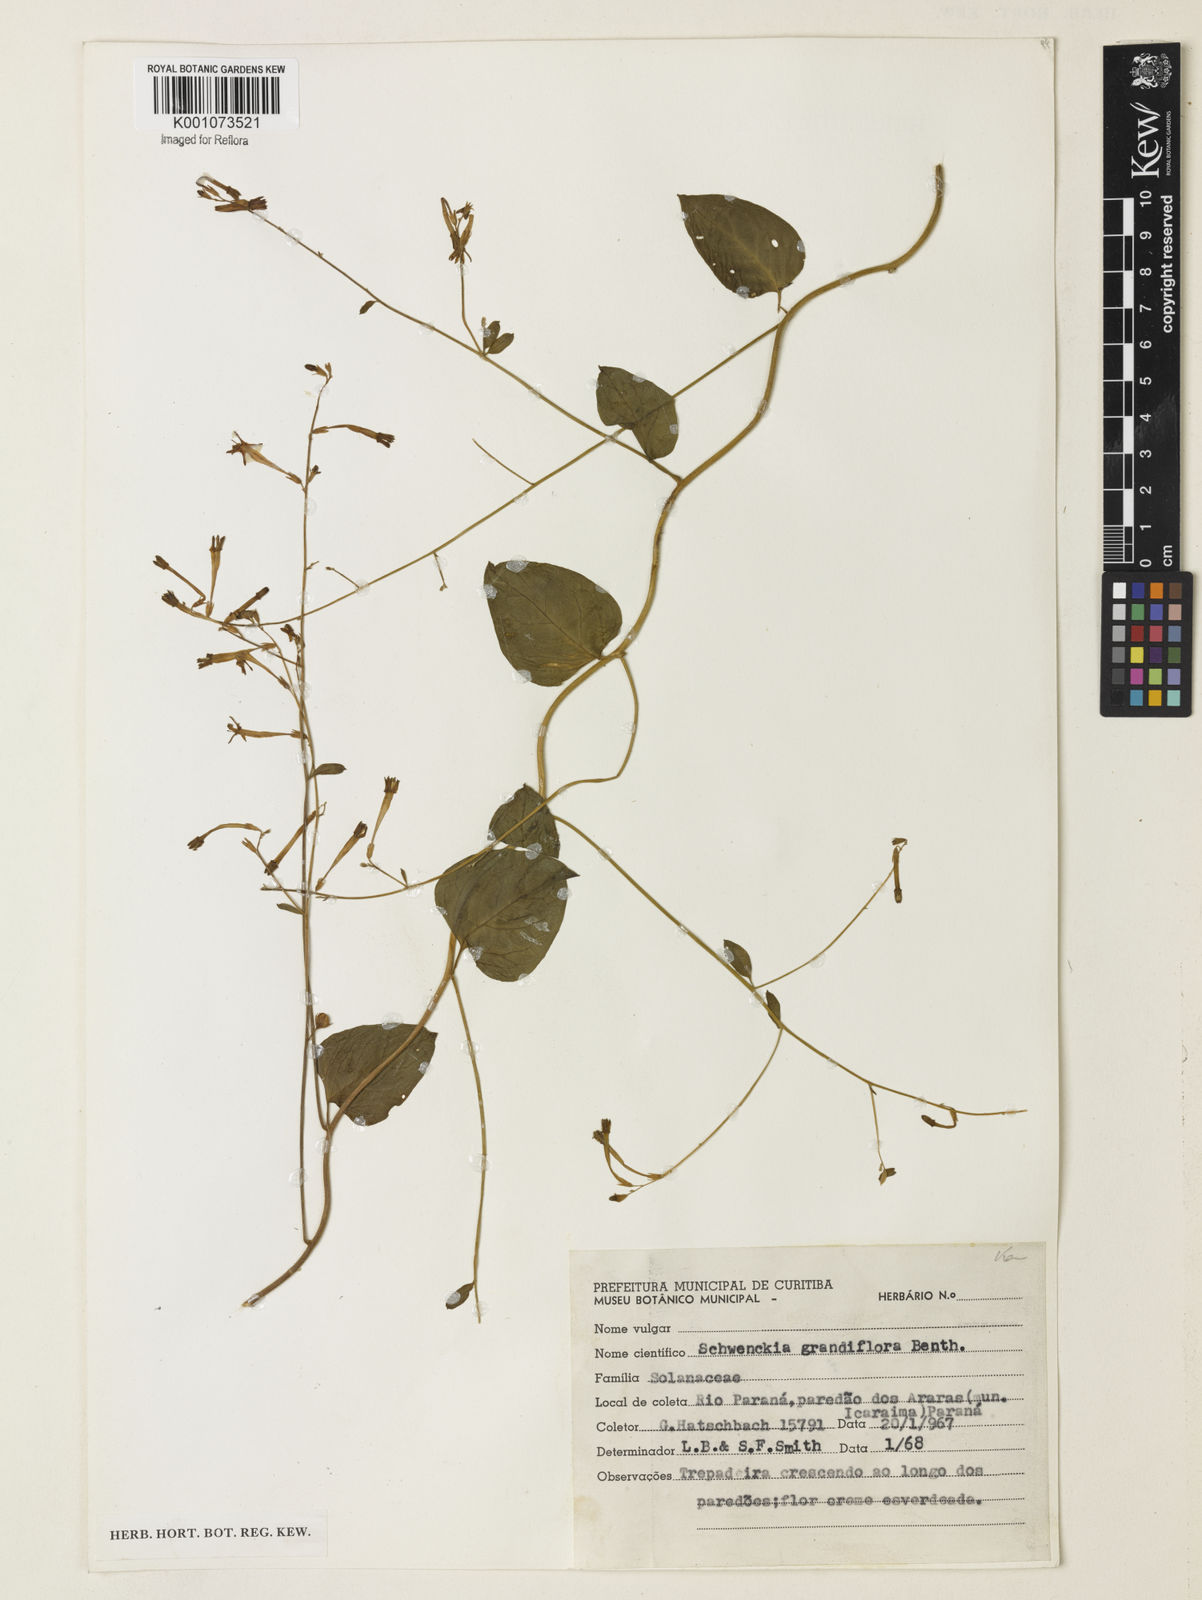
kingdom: Plantae
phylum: Tracheophyta
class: Magnoliopsida
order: Solanales
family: Solanaceae
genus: Schwenckia
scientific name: Schwenckia grandiflora
